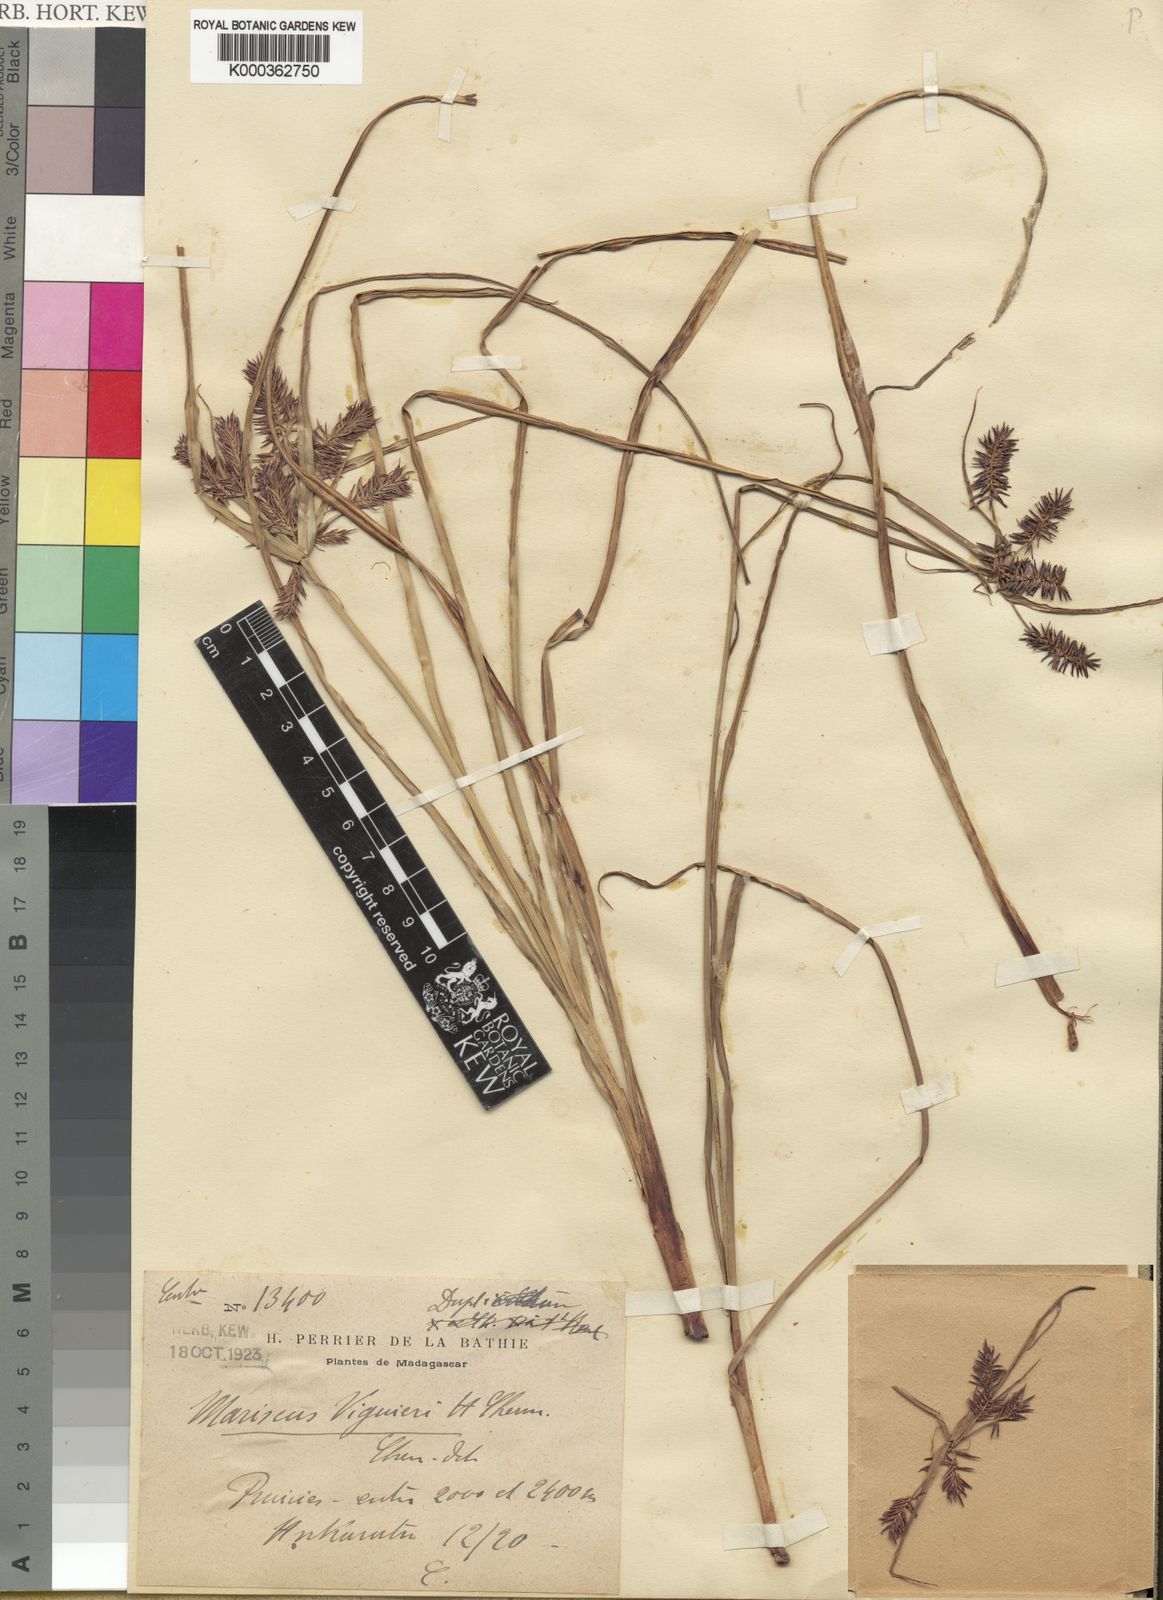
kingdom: Plantae
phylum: Tracheophyta
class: Liliopsida
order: Poales
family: Cyperaceae
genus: Cyperus
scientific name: Cyperus impubes
